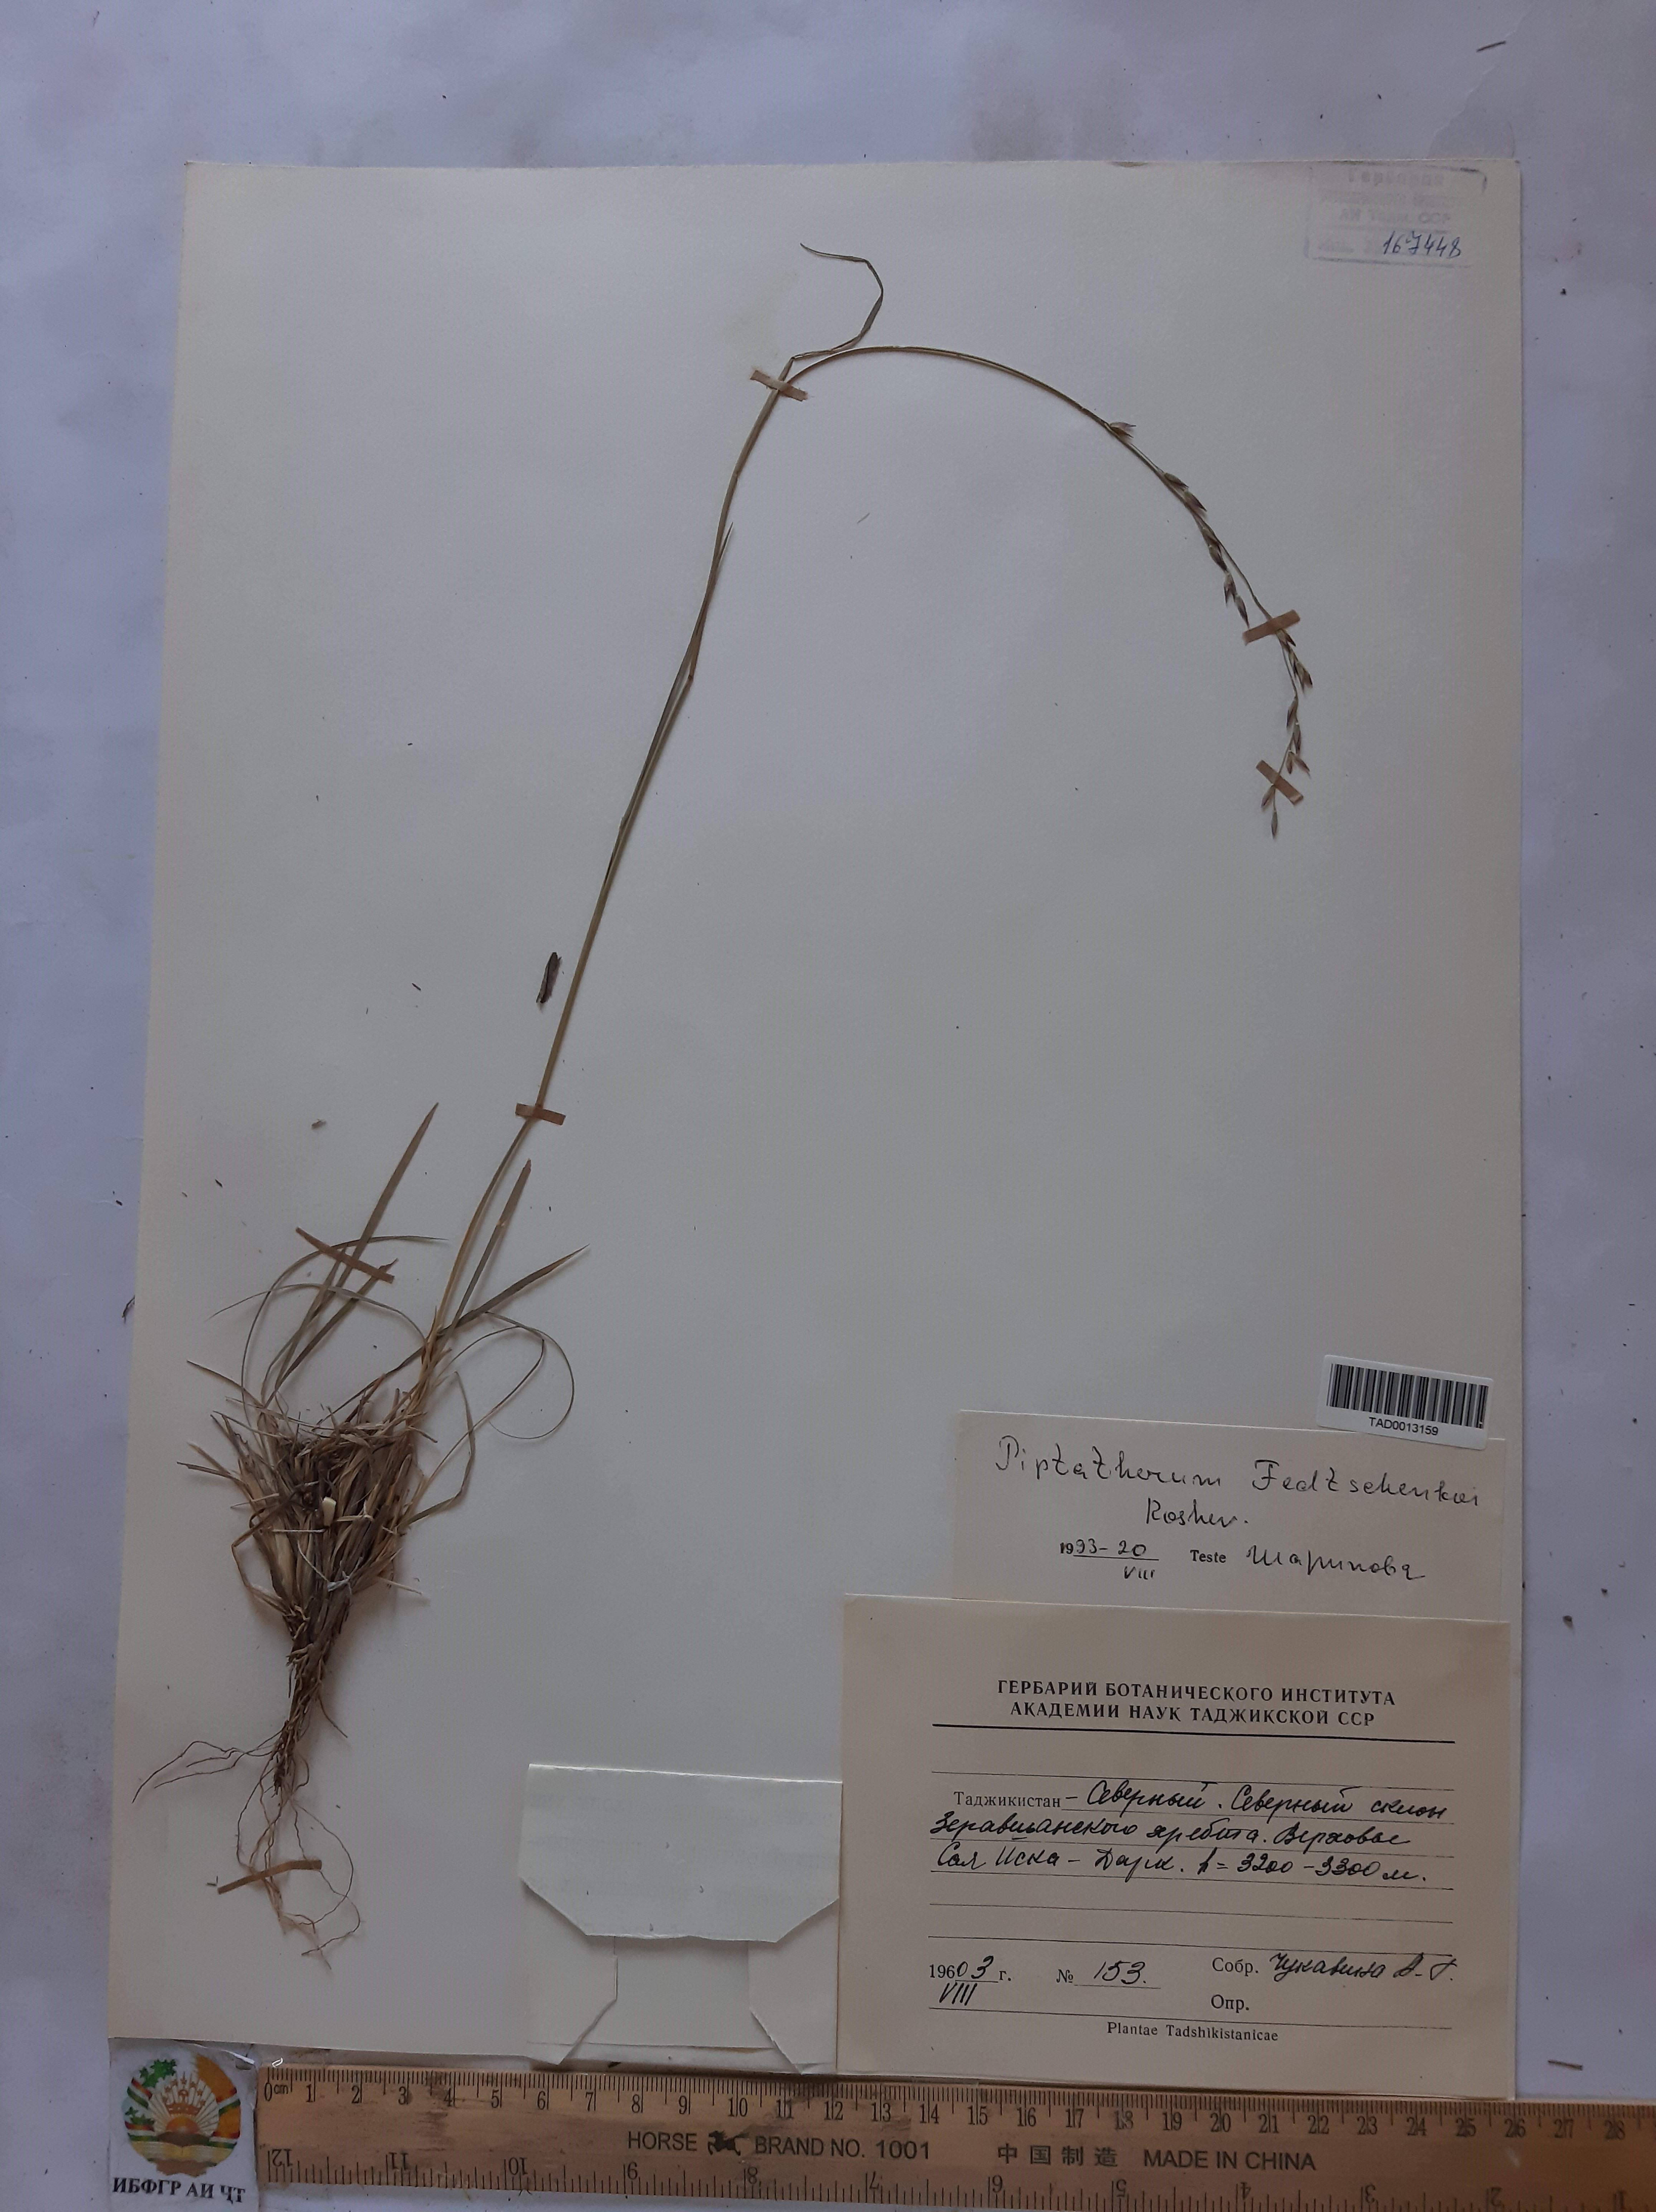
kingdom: Plantae
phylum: Tracheophyta
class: Liliopsida
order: Poales
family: Poaceae
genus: Piptatherum
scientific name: Piptatherum sogdianum
